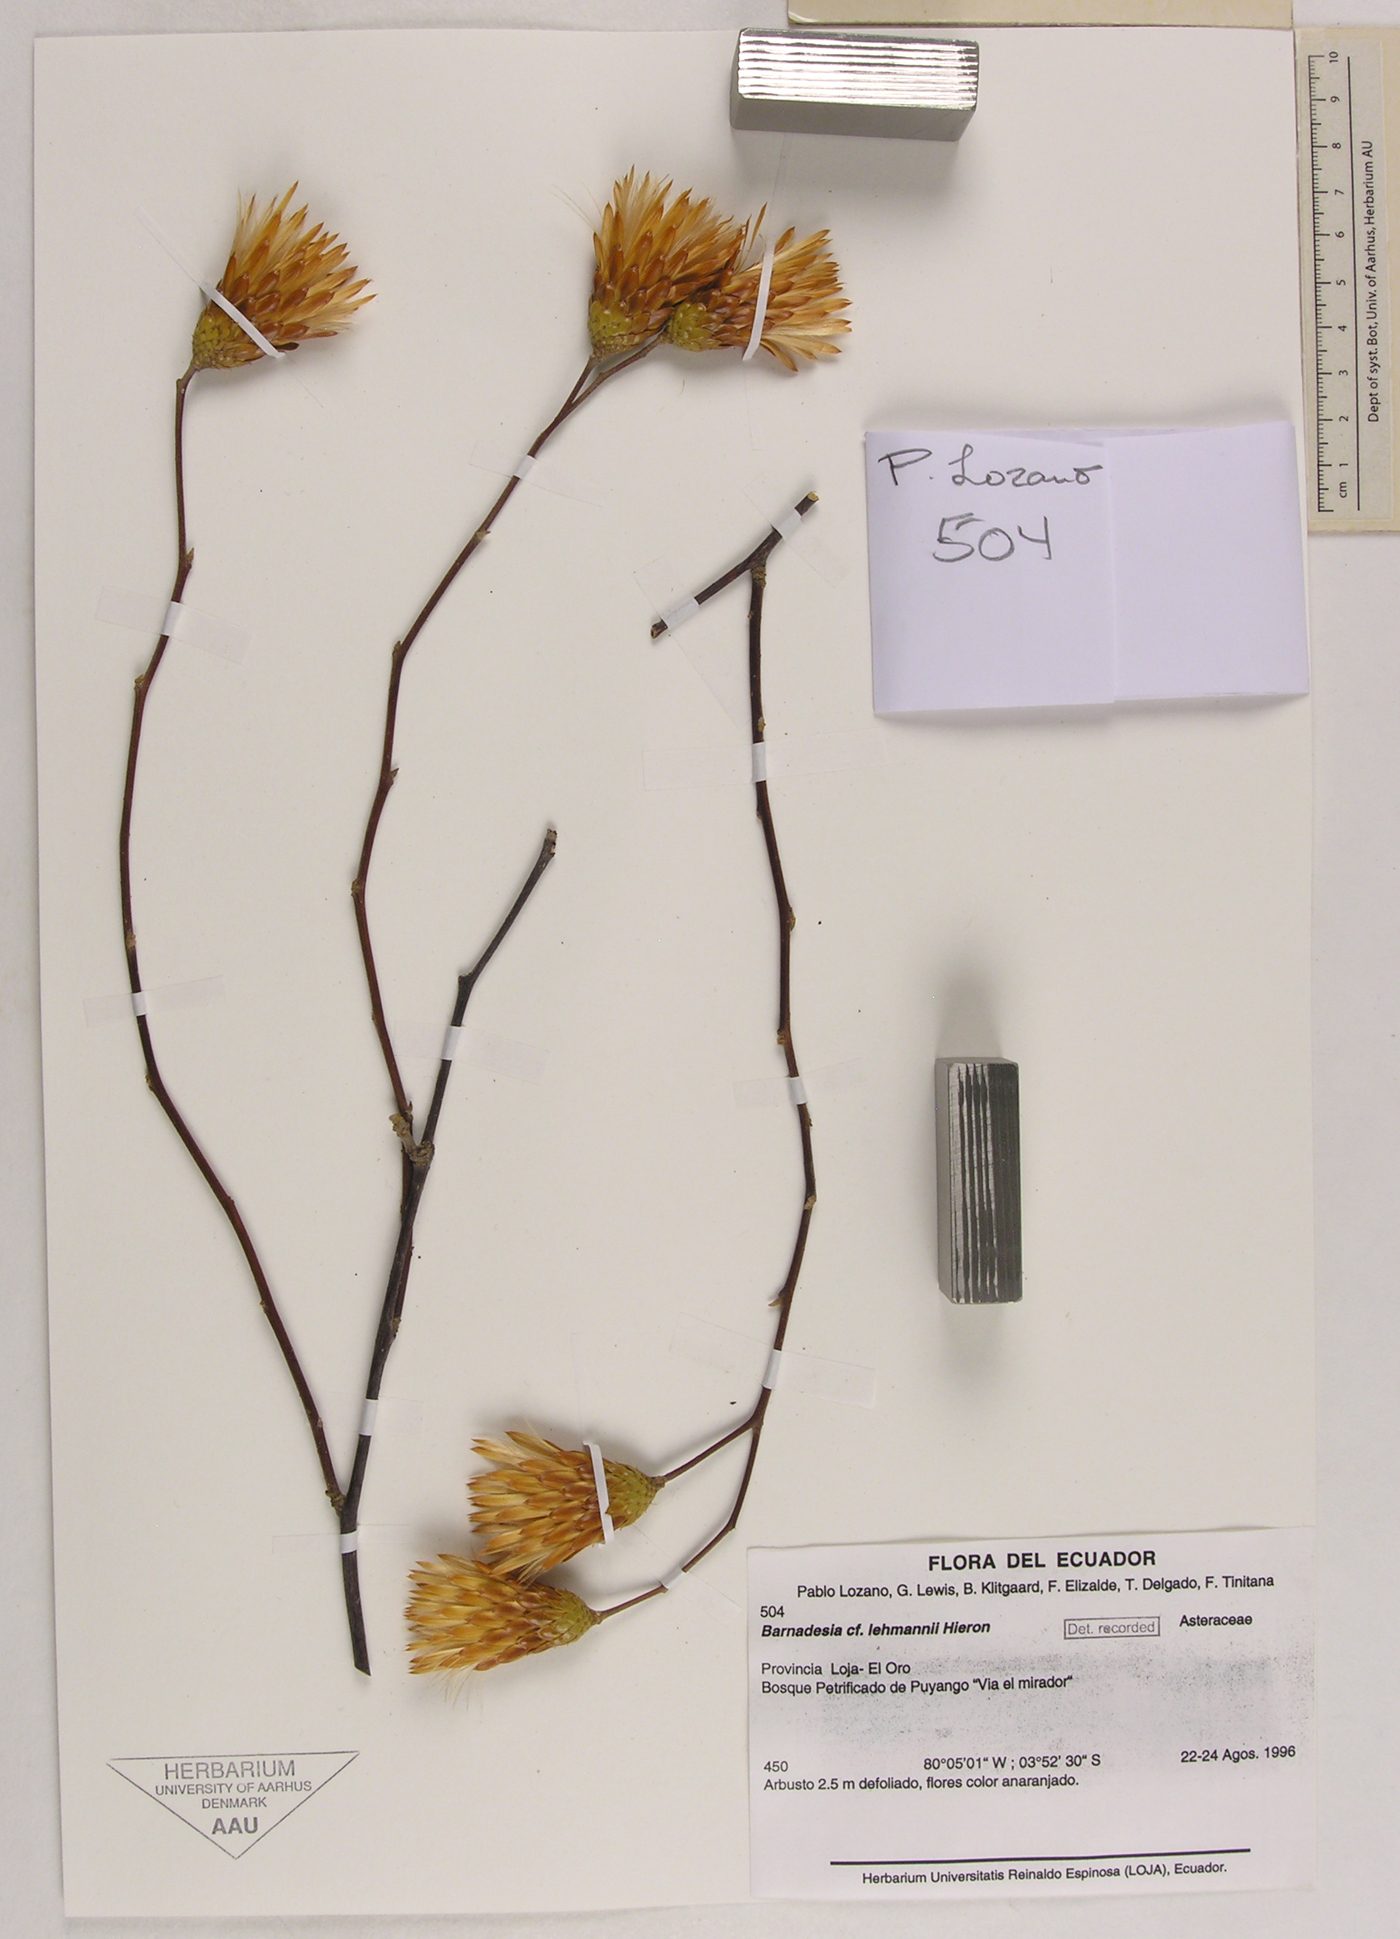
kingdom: Plantae
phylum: Tracheophyta
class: Magnoliopsida
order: Asterales
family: Asteraceae
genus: Barnadesia
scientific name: Barnadesia lehmannii
